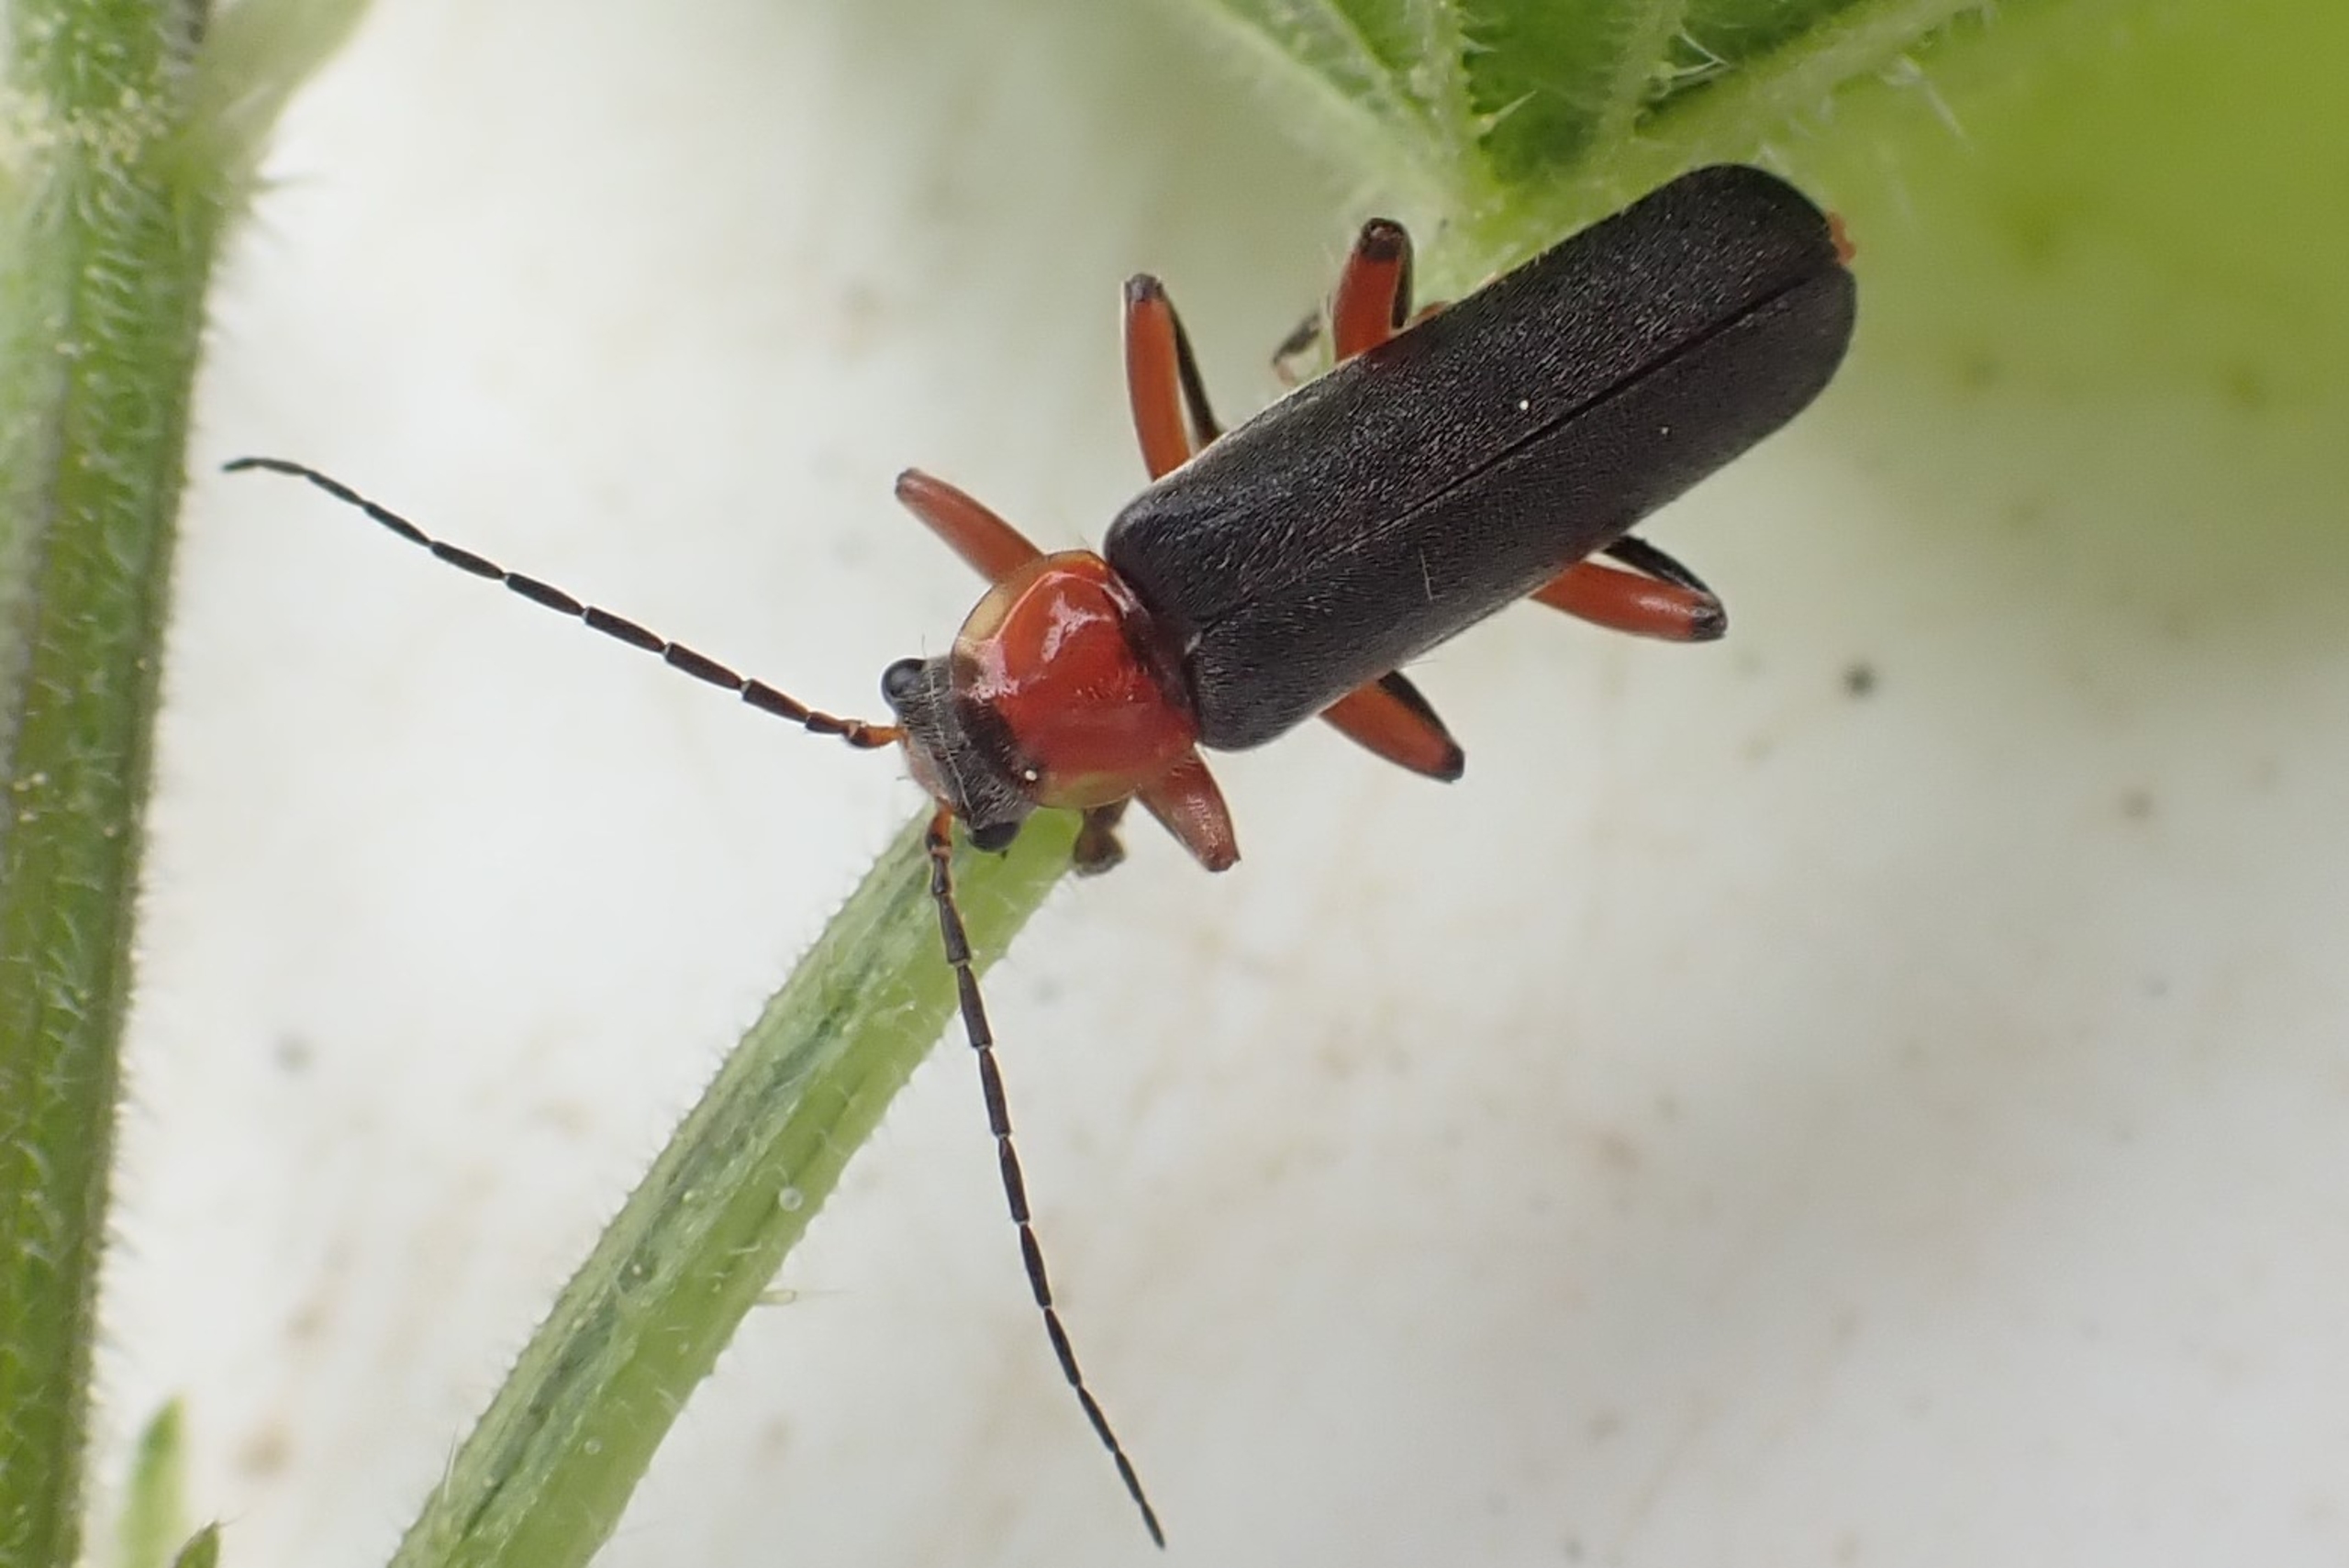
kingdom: Animalia
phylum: Arthropoda
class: Insecta
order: Coleoptera
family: Cantharidae
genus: Cantharis
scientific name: Cantharis pellucida
